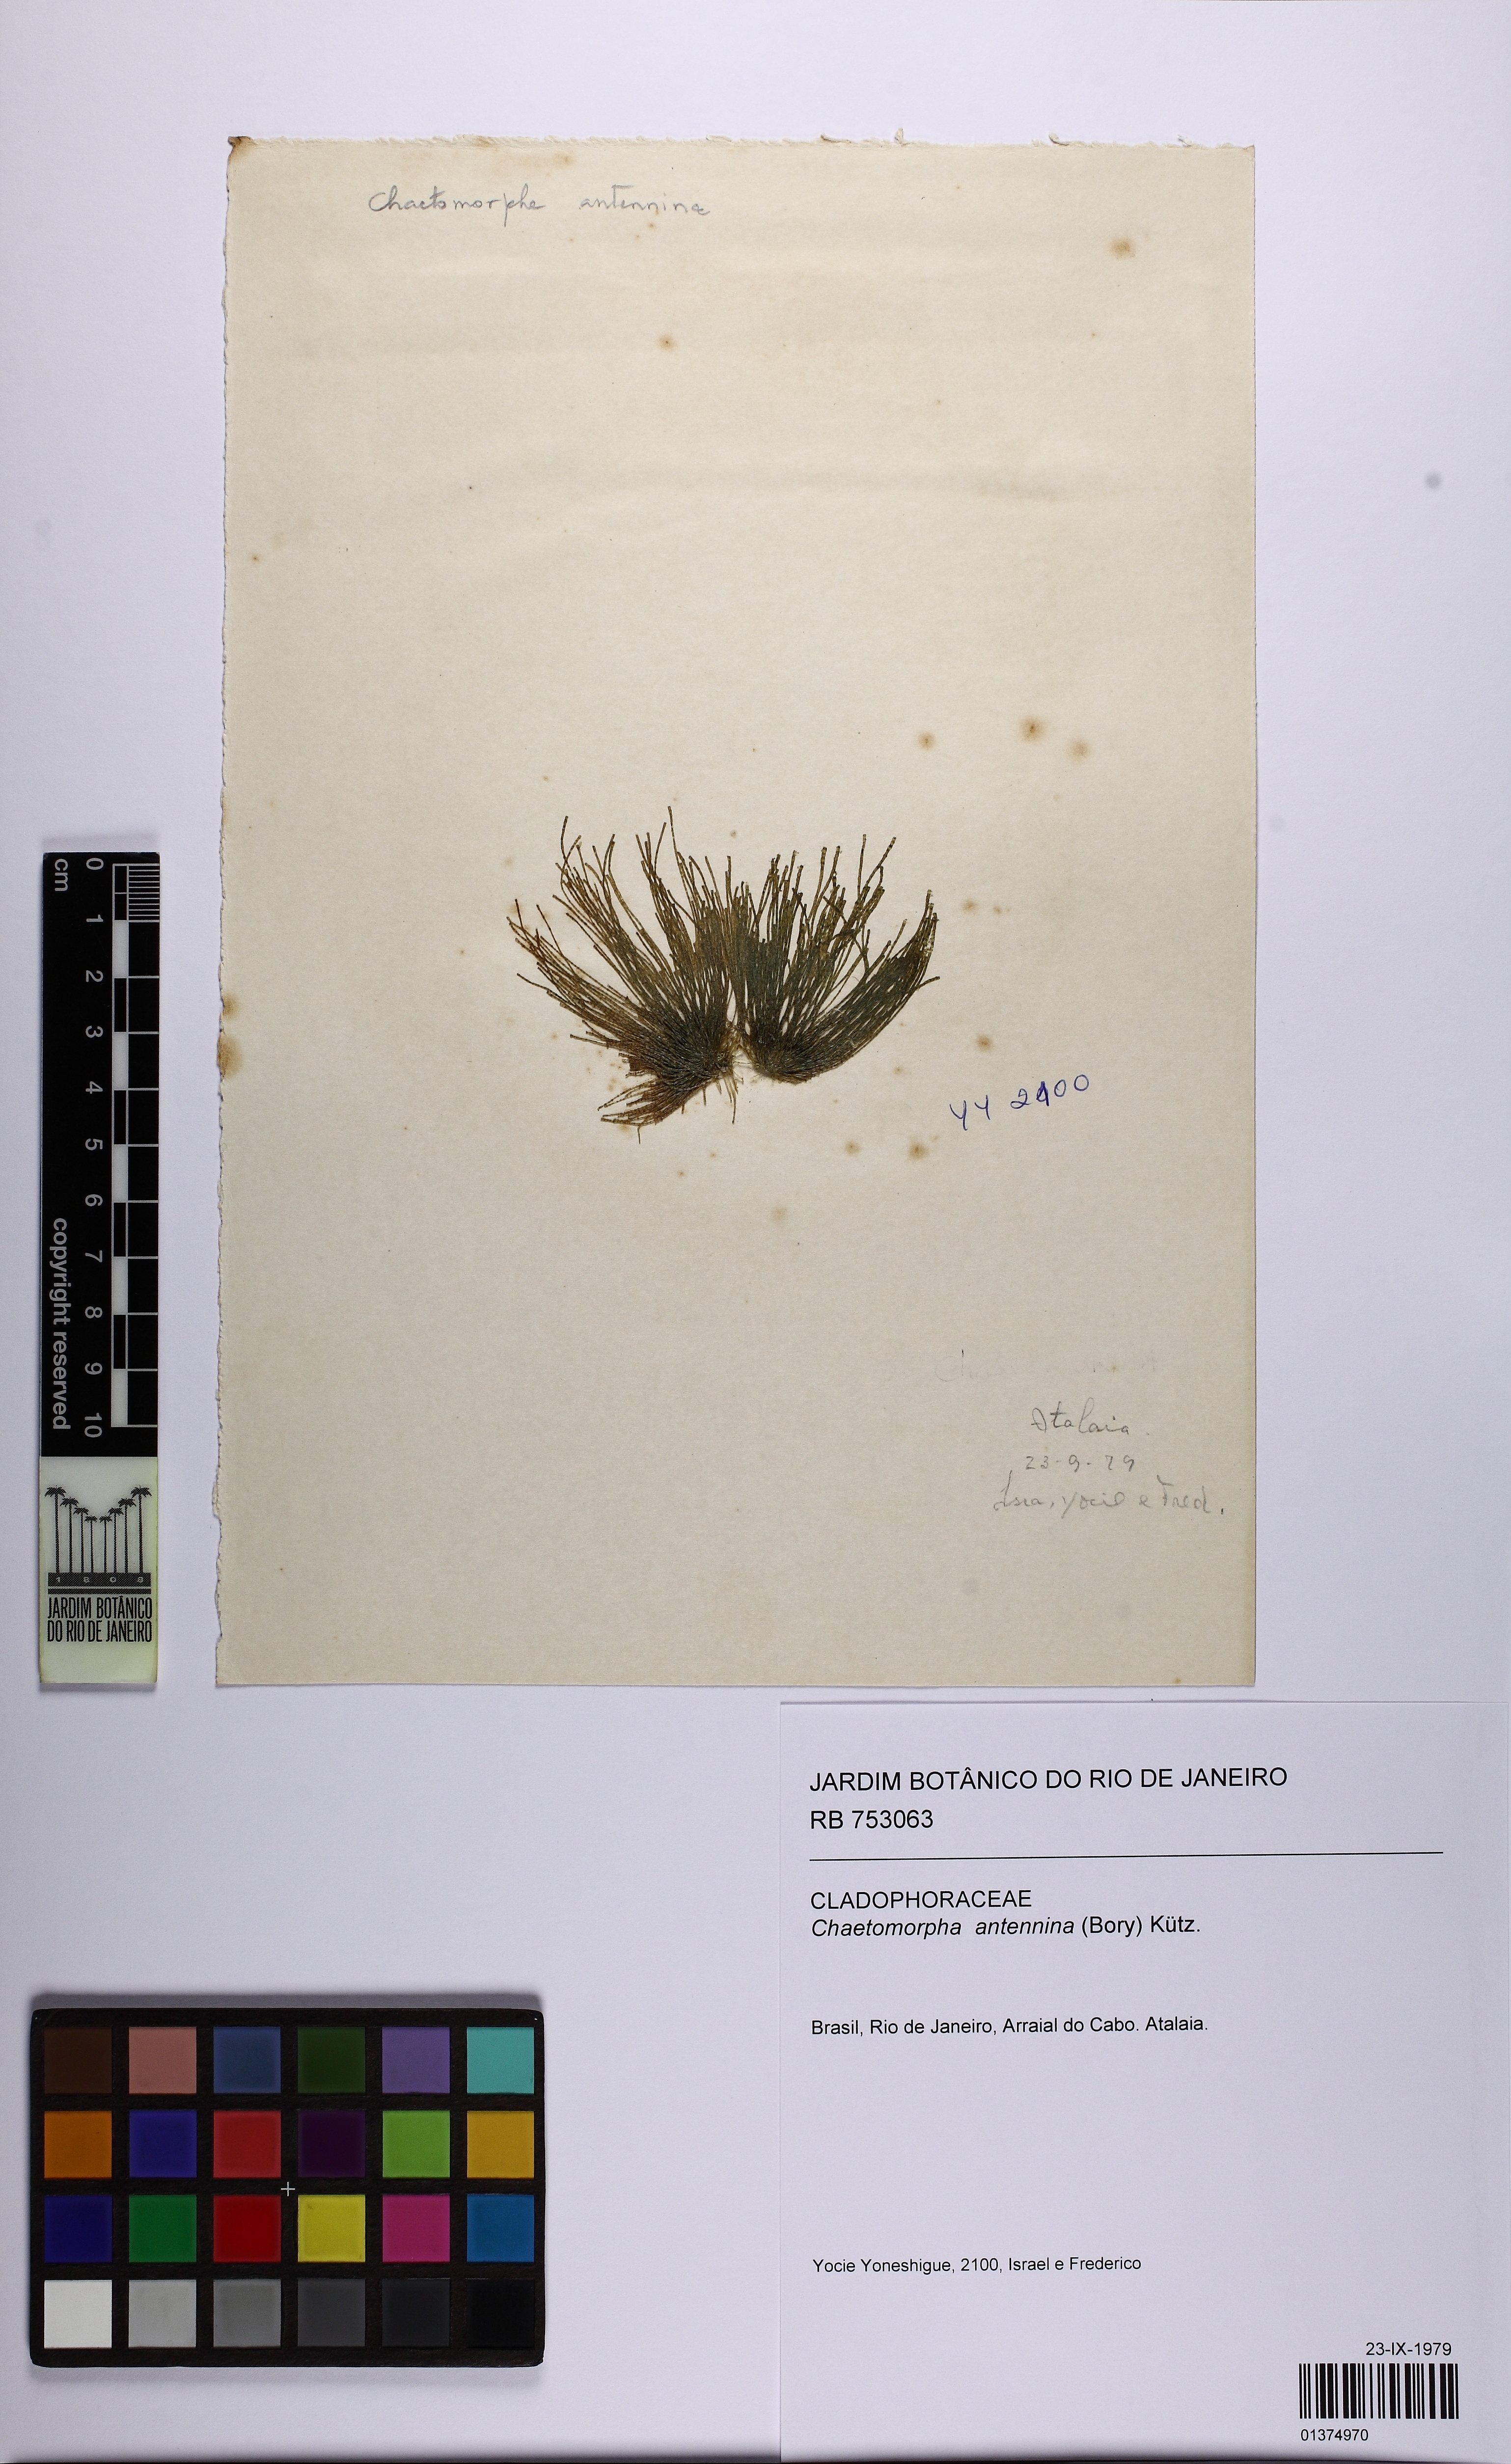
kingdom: Plantae
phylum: Chlorophyta
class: Ulvophyceae
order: Cladophorales
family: Cladophoraceae
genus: Chaetomorpha
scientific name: Chaetomorpha antennina
